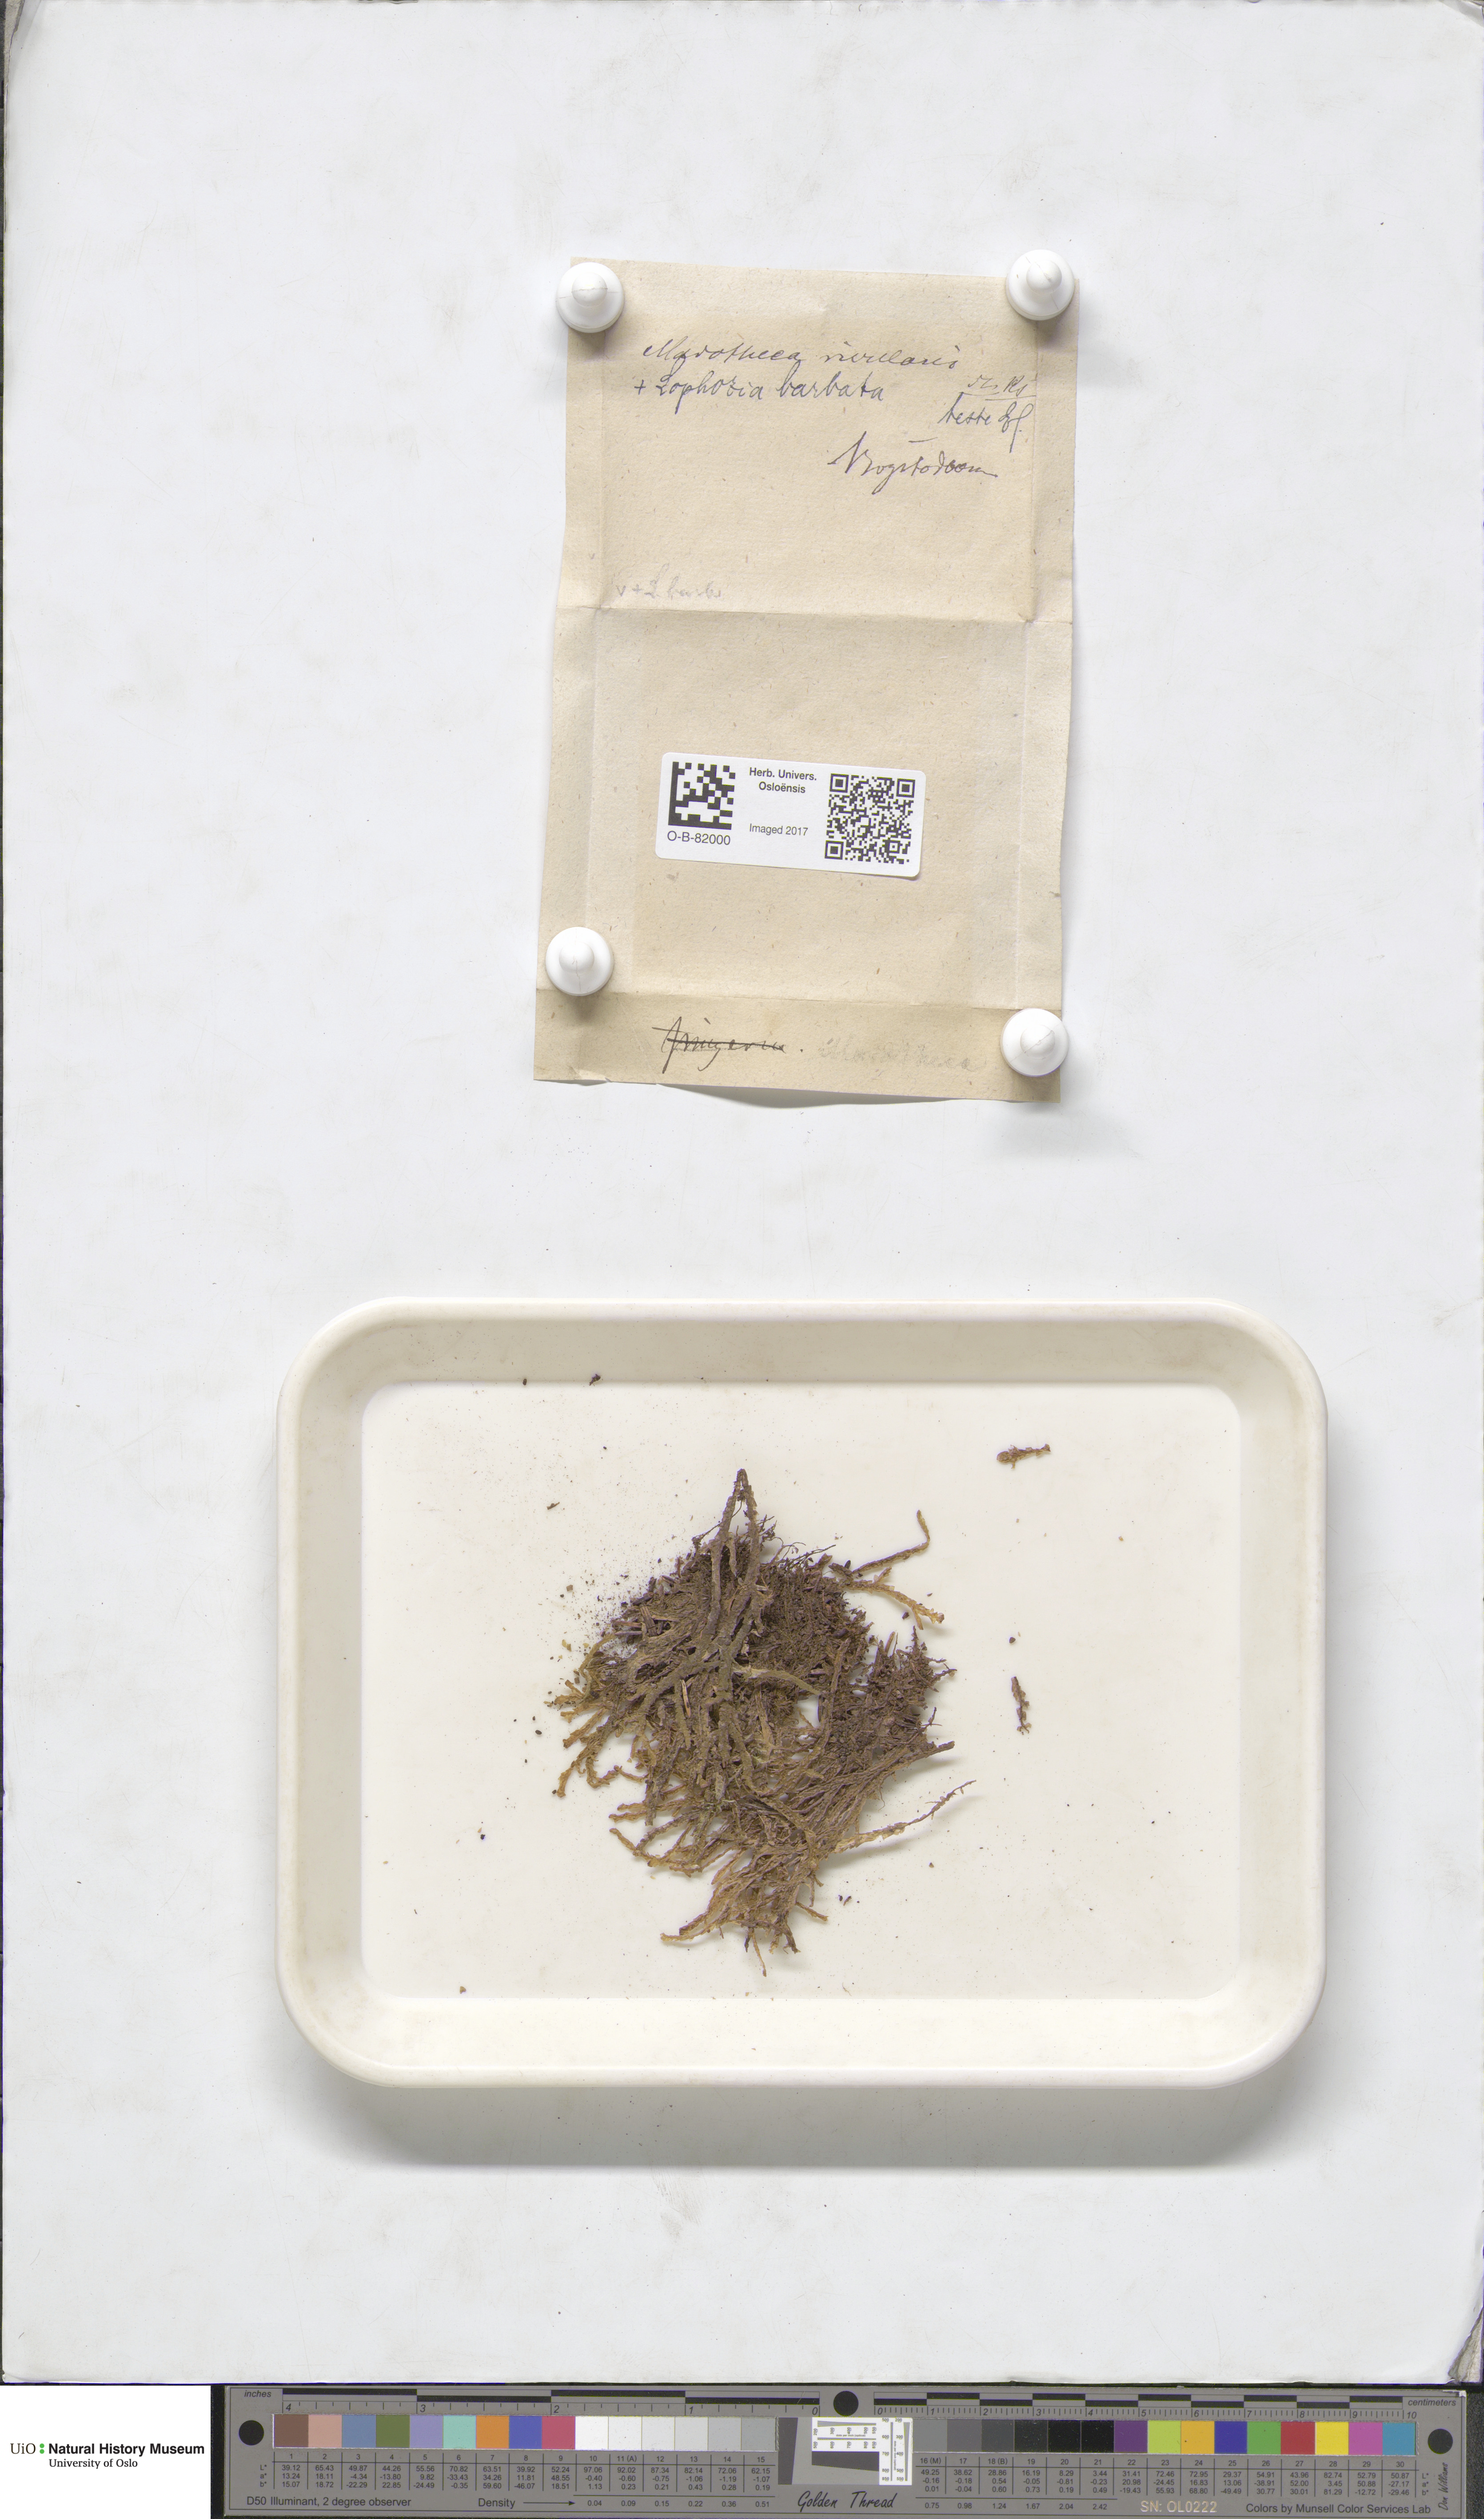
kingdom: Plantae
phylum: Marchantiophyta
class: Jungermanniopsida
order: Porellales
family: Porellaceae
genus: Porella
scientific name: Porella cordaeana
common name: Cliff scalewort
